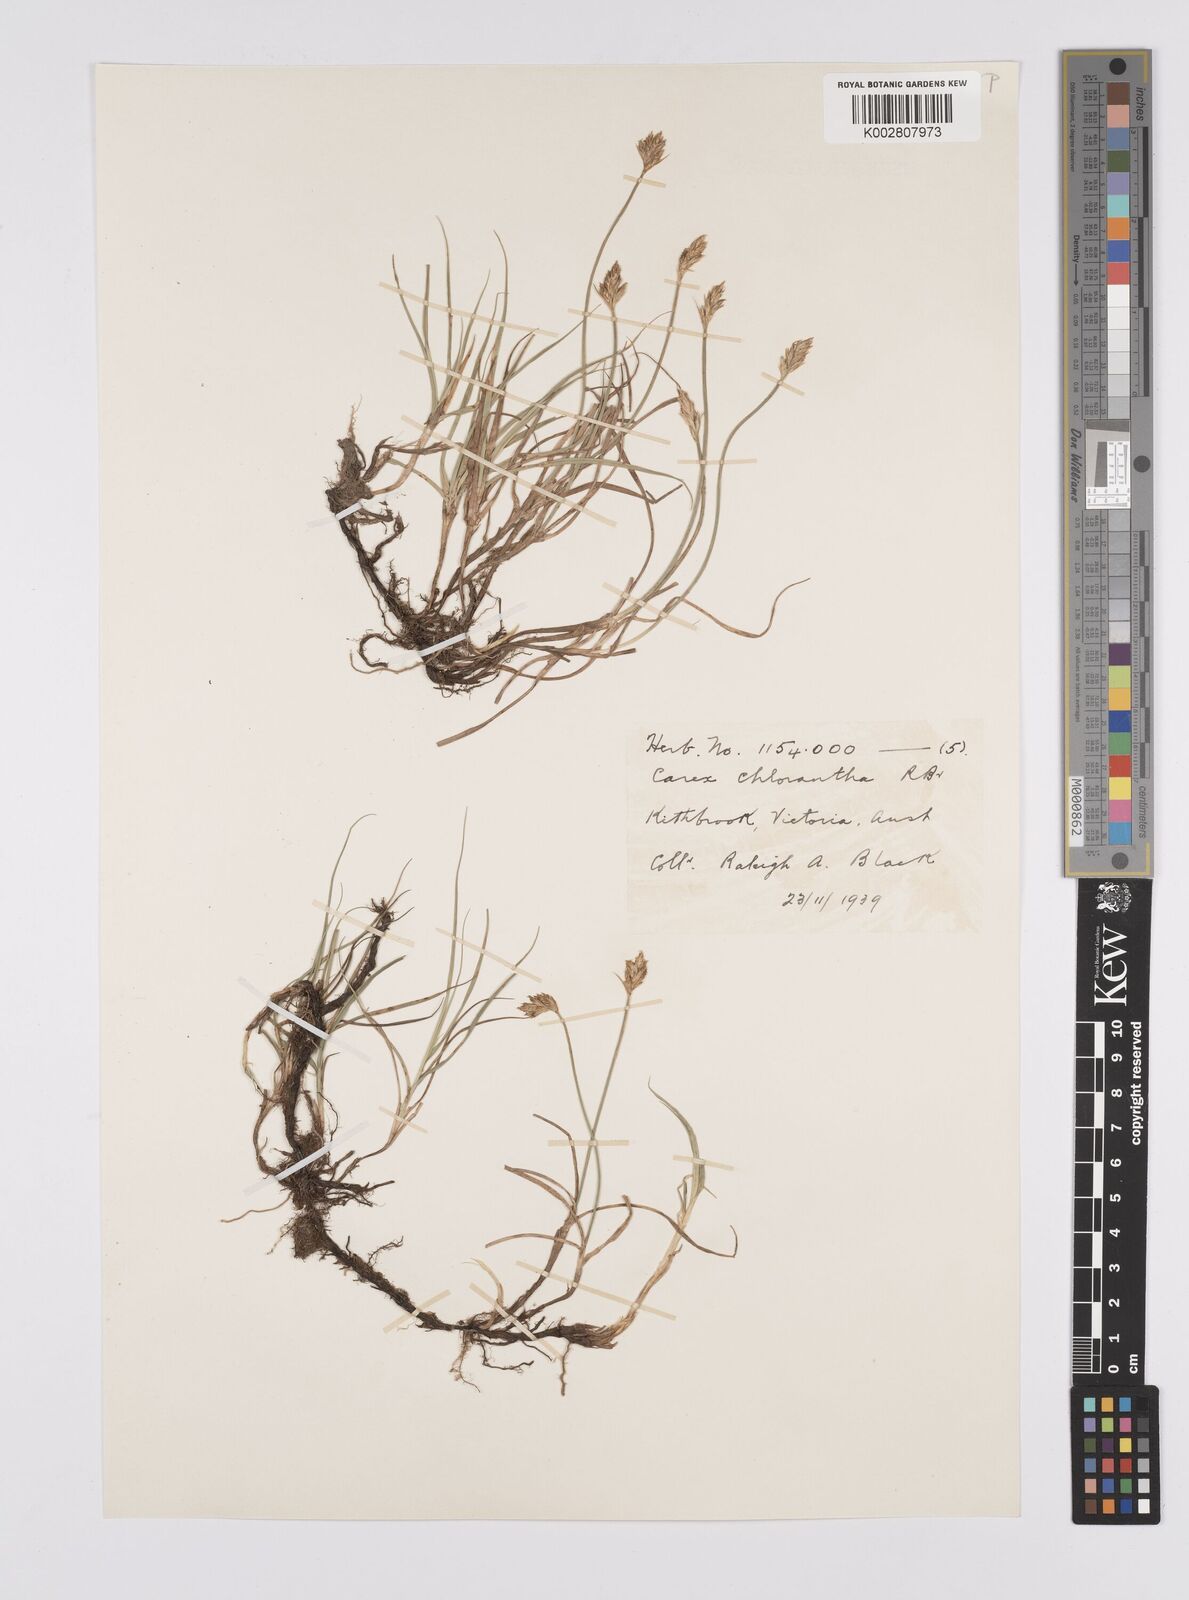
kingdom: Plantae
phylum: Tracheophyta
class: Liliopsida
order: Poales
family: Cyperaceae
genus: Carex
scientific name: Carex chlorantha
